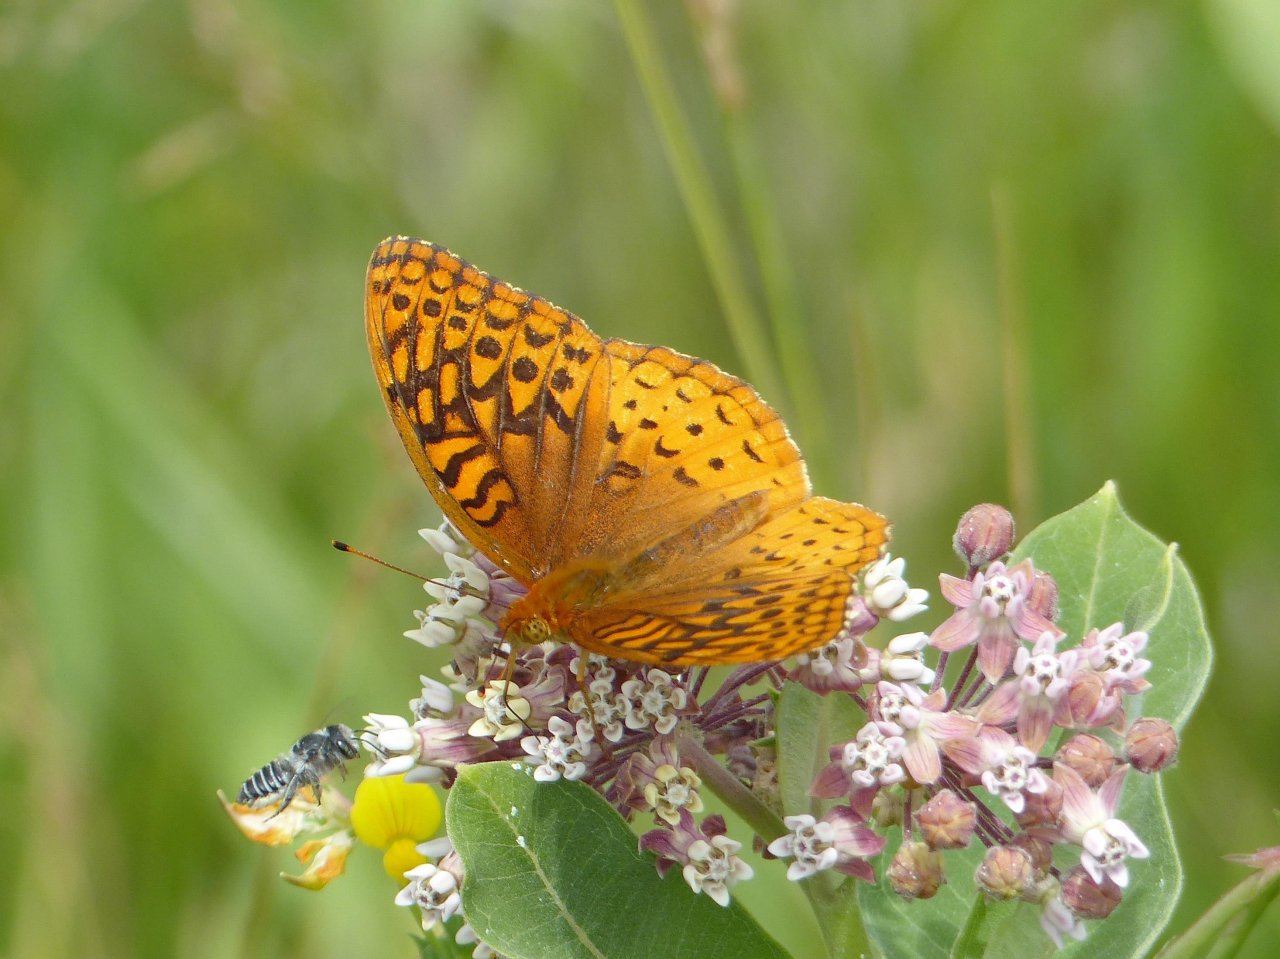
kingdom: Animalia
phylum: Arthropoda
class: Insecta
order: Lepidoptera
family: Nymphalidae
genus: Speyeria
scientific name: Speyeria cybele
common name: Great Spangled Fritillary
